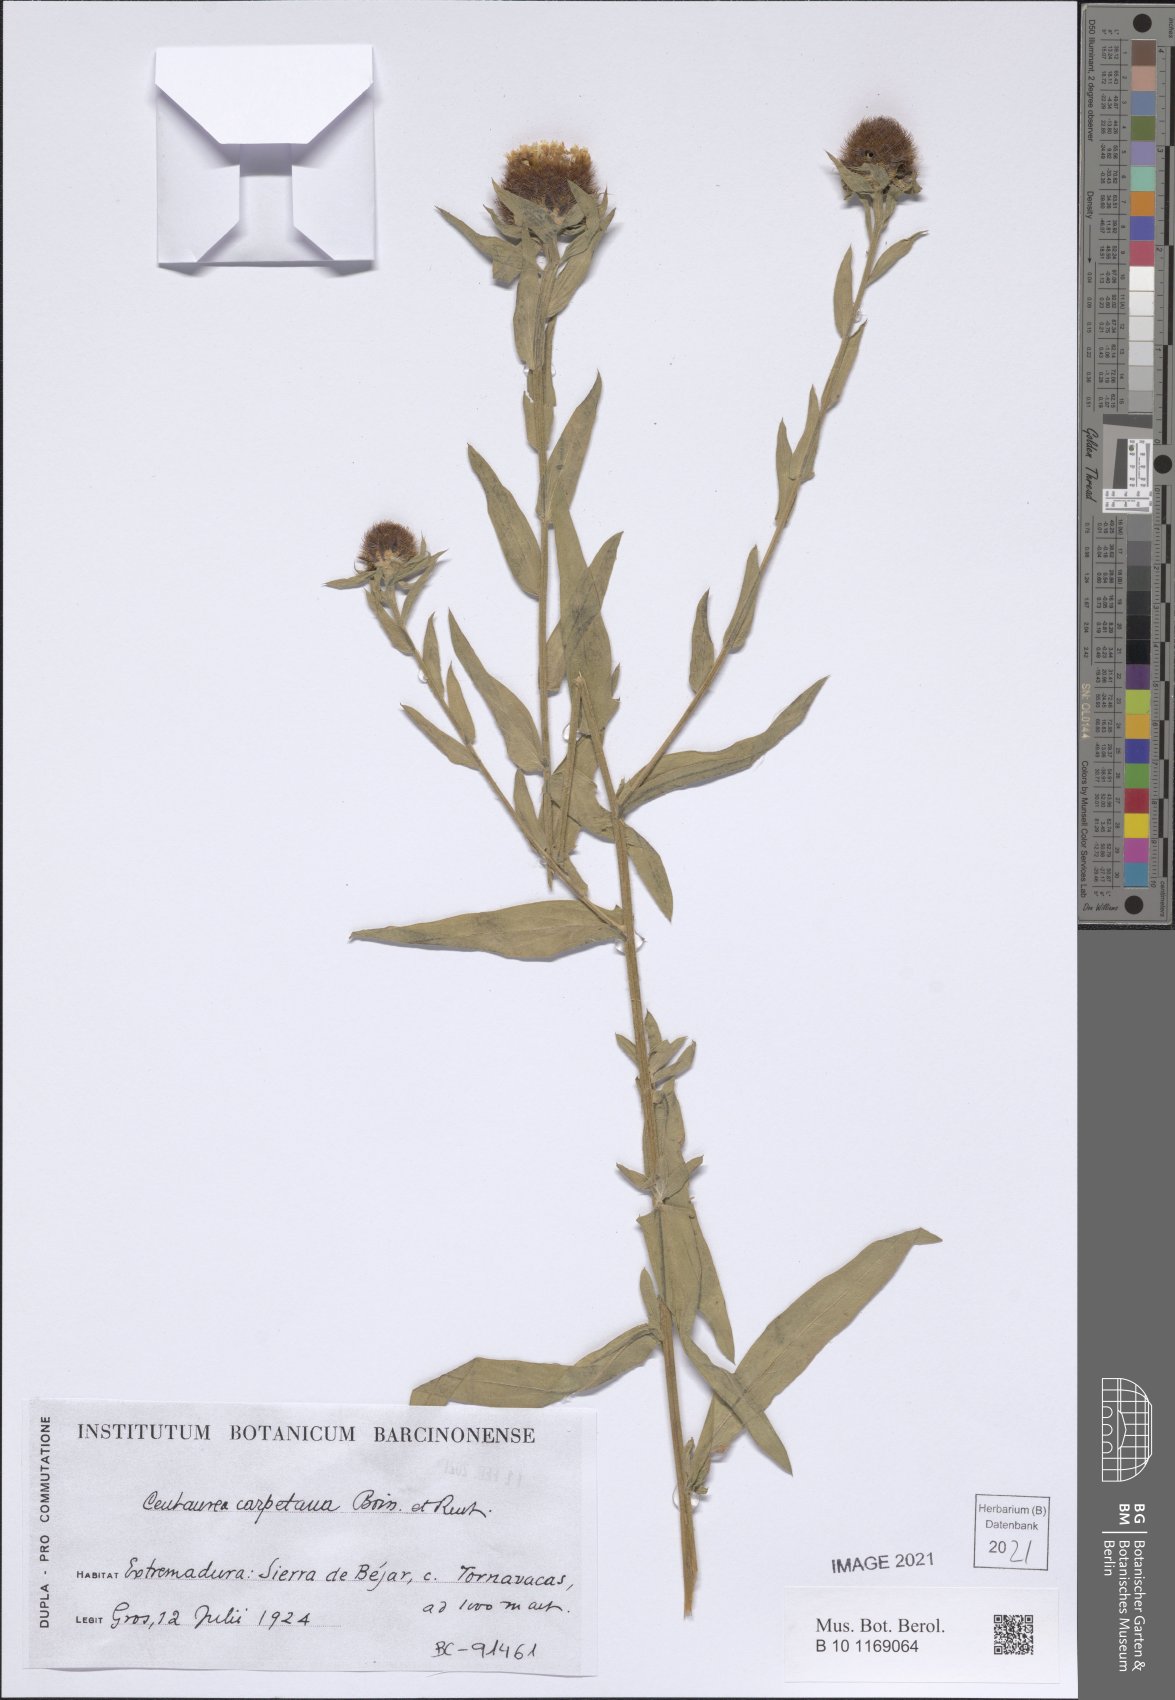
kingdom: Plantae
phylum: Tracheophyta
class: Magnoliopsida
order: Asterales
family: Asteraceae
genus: Centaurea
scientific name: Centaurea nigra
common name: Lesser knapweed
